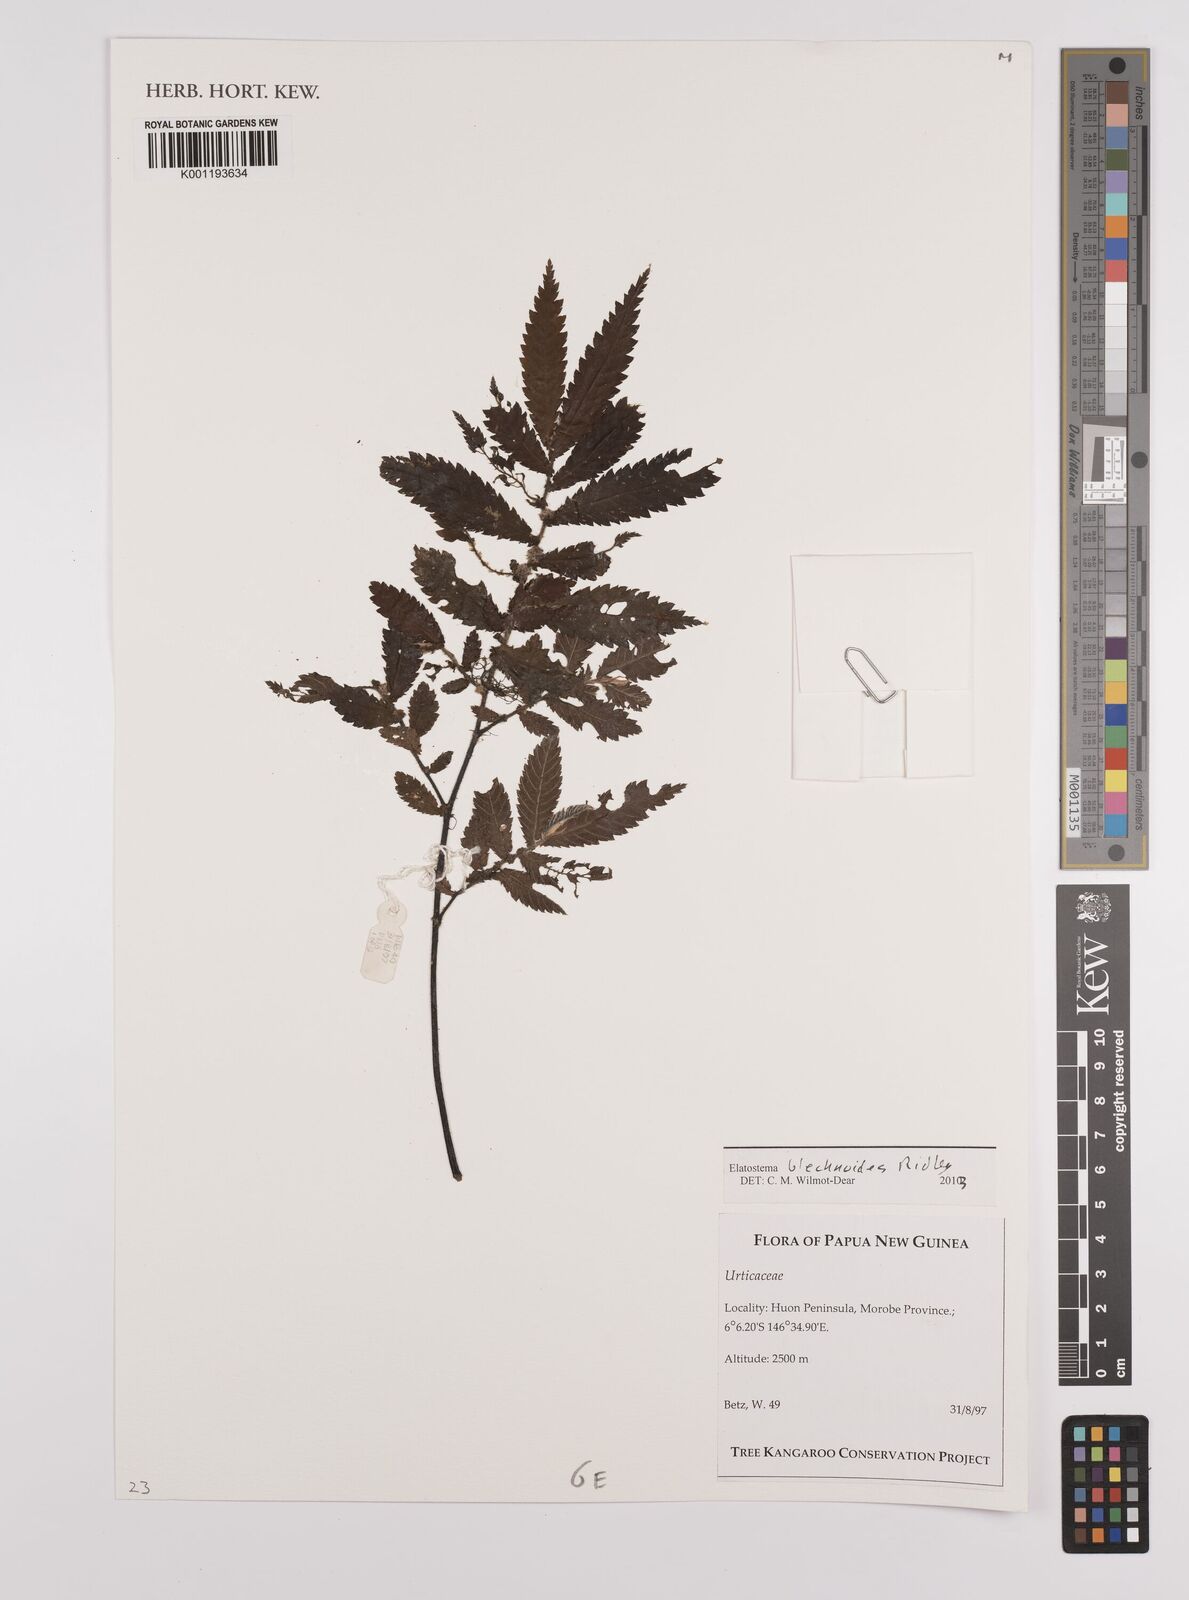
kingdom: Plantae
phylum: Tracheophyta
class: Magnoliopsida
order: Rosales
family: Urticaceae
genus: Elatostema
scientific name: Elatostema blechnoides
